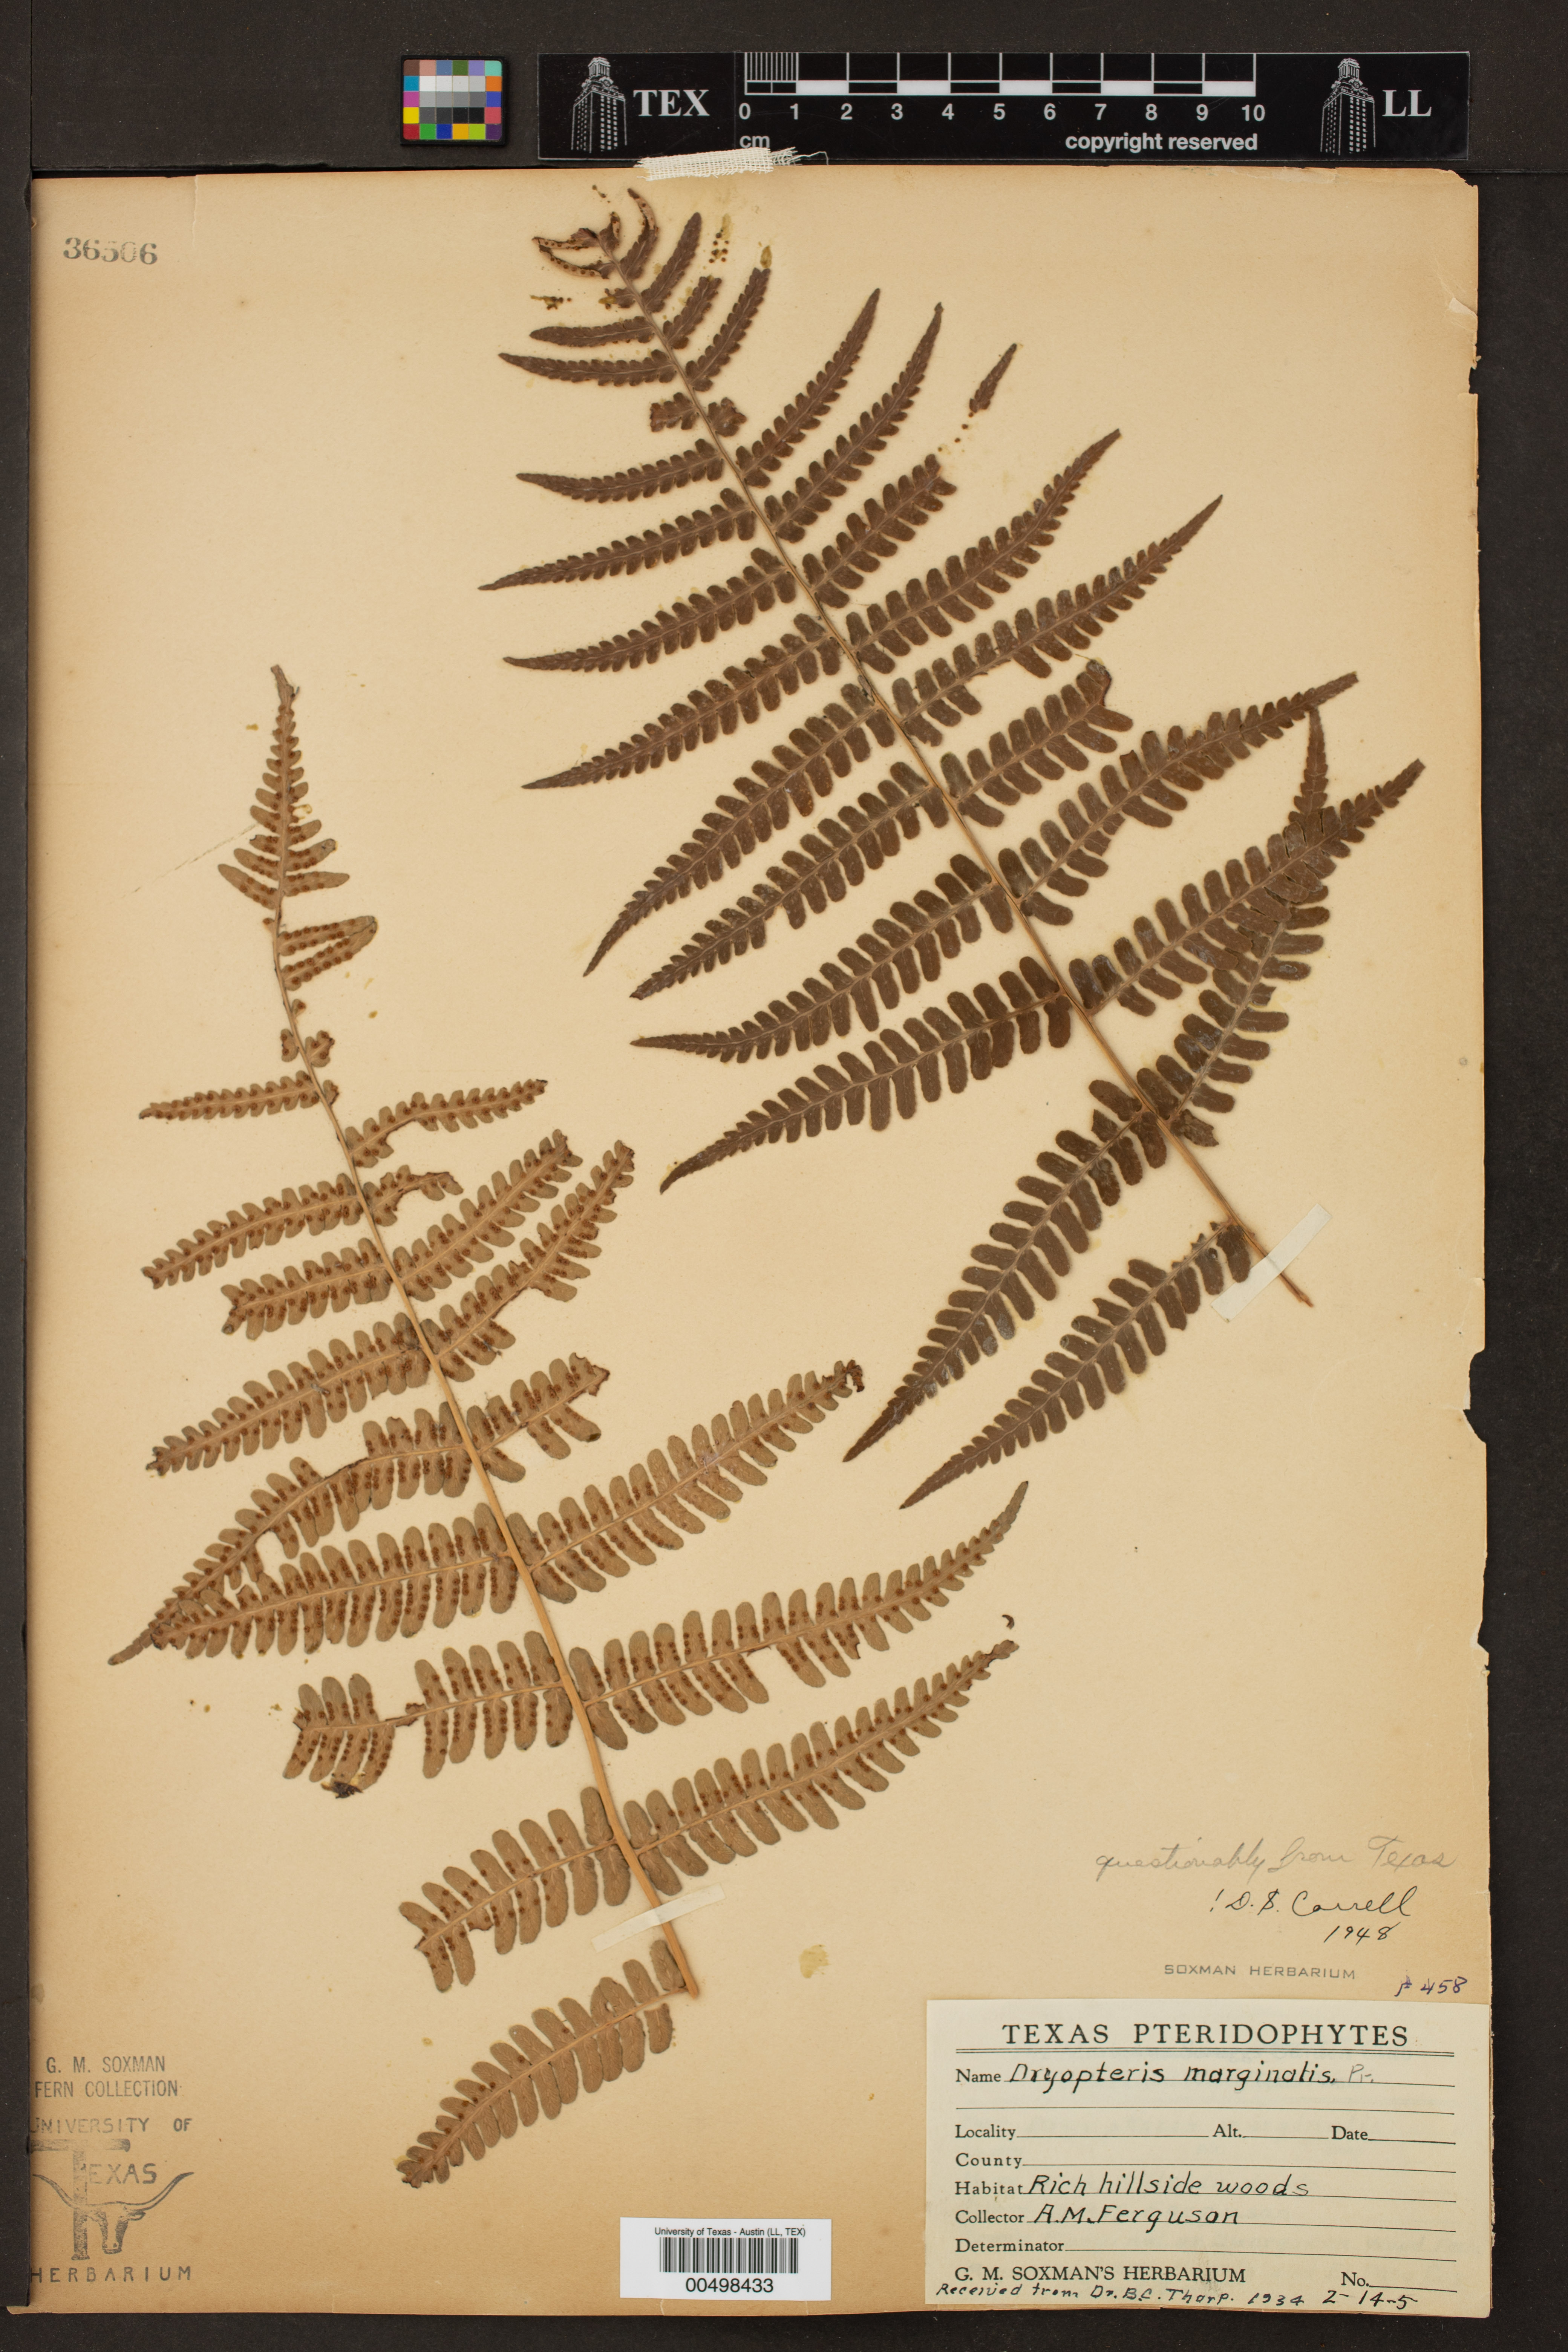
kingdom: Plantae
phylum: Tracheophyta
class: Polypodiopsida
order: Polypodiales
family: Dryopteridaceae
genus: Dryopteris
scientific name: Dryopteris marginalis
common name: Marginal wood fern
